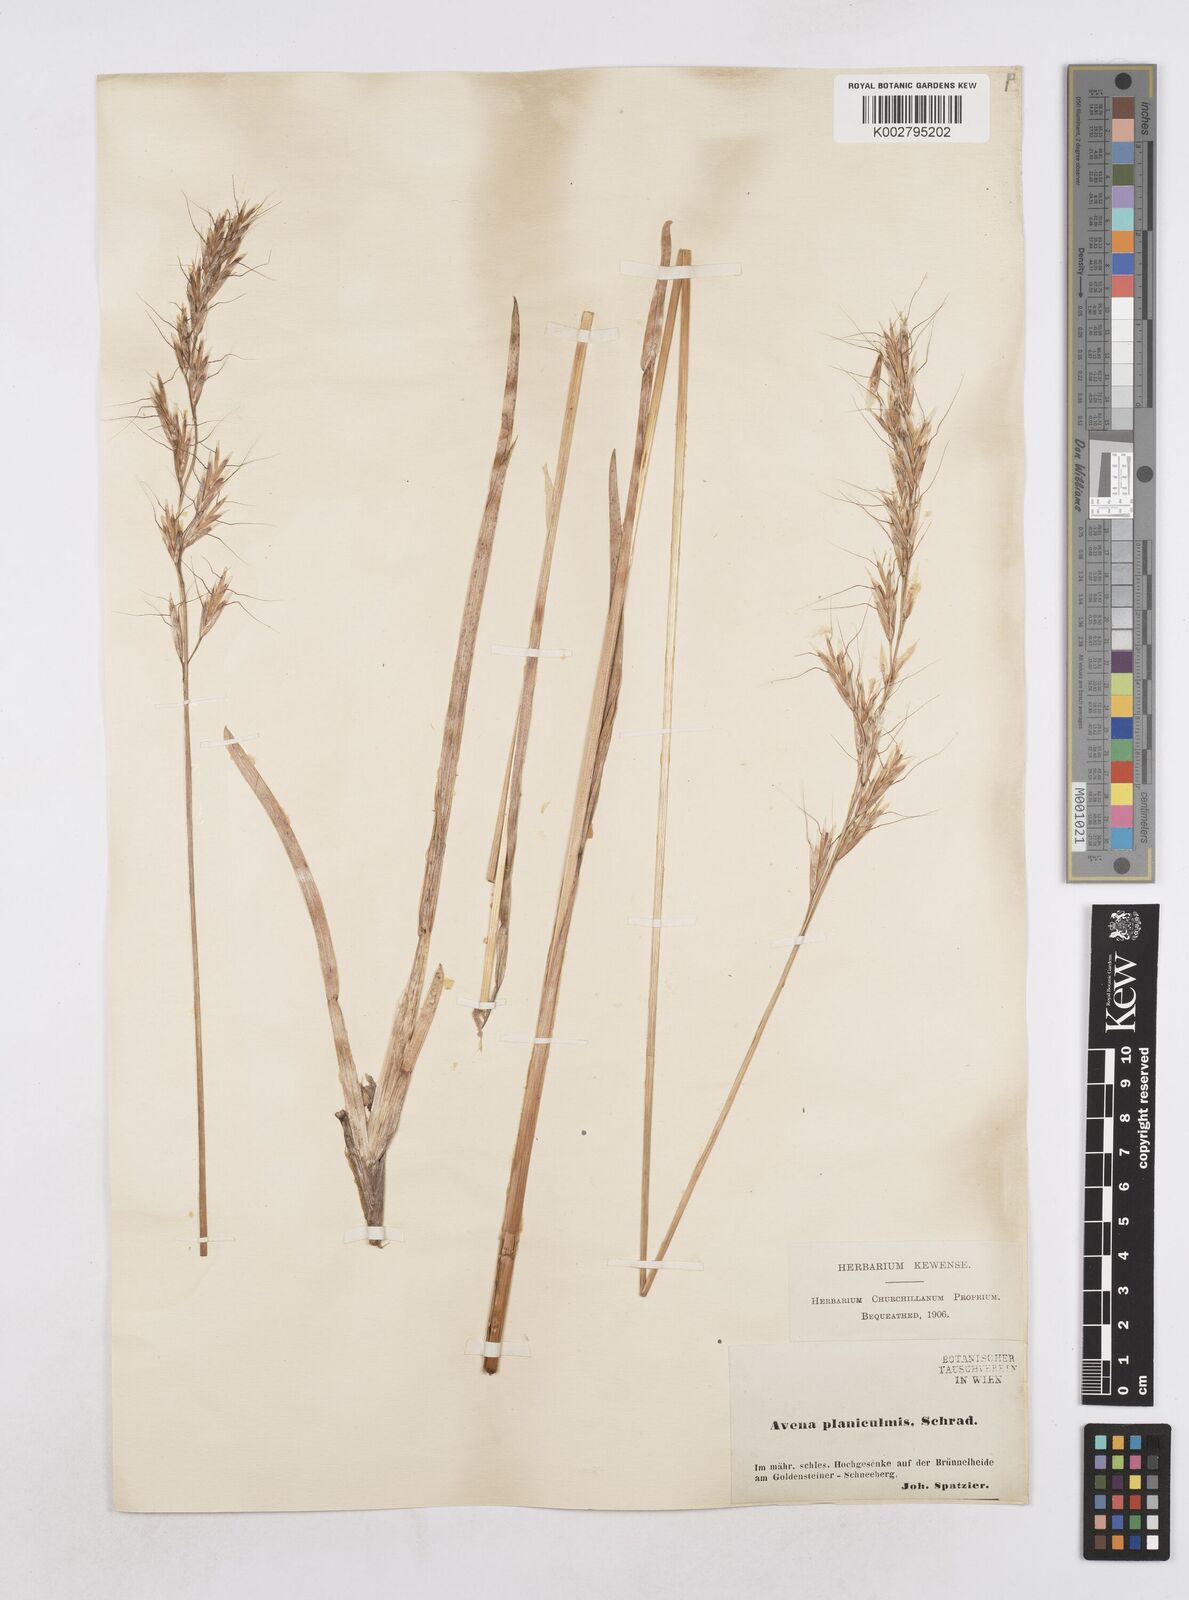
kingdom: Plantae
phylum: Tracheophyta
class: Liliopsida
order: Poales
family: Poaceae
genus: Helictochloa
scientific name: Helictochloa planiculmis
